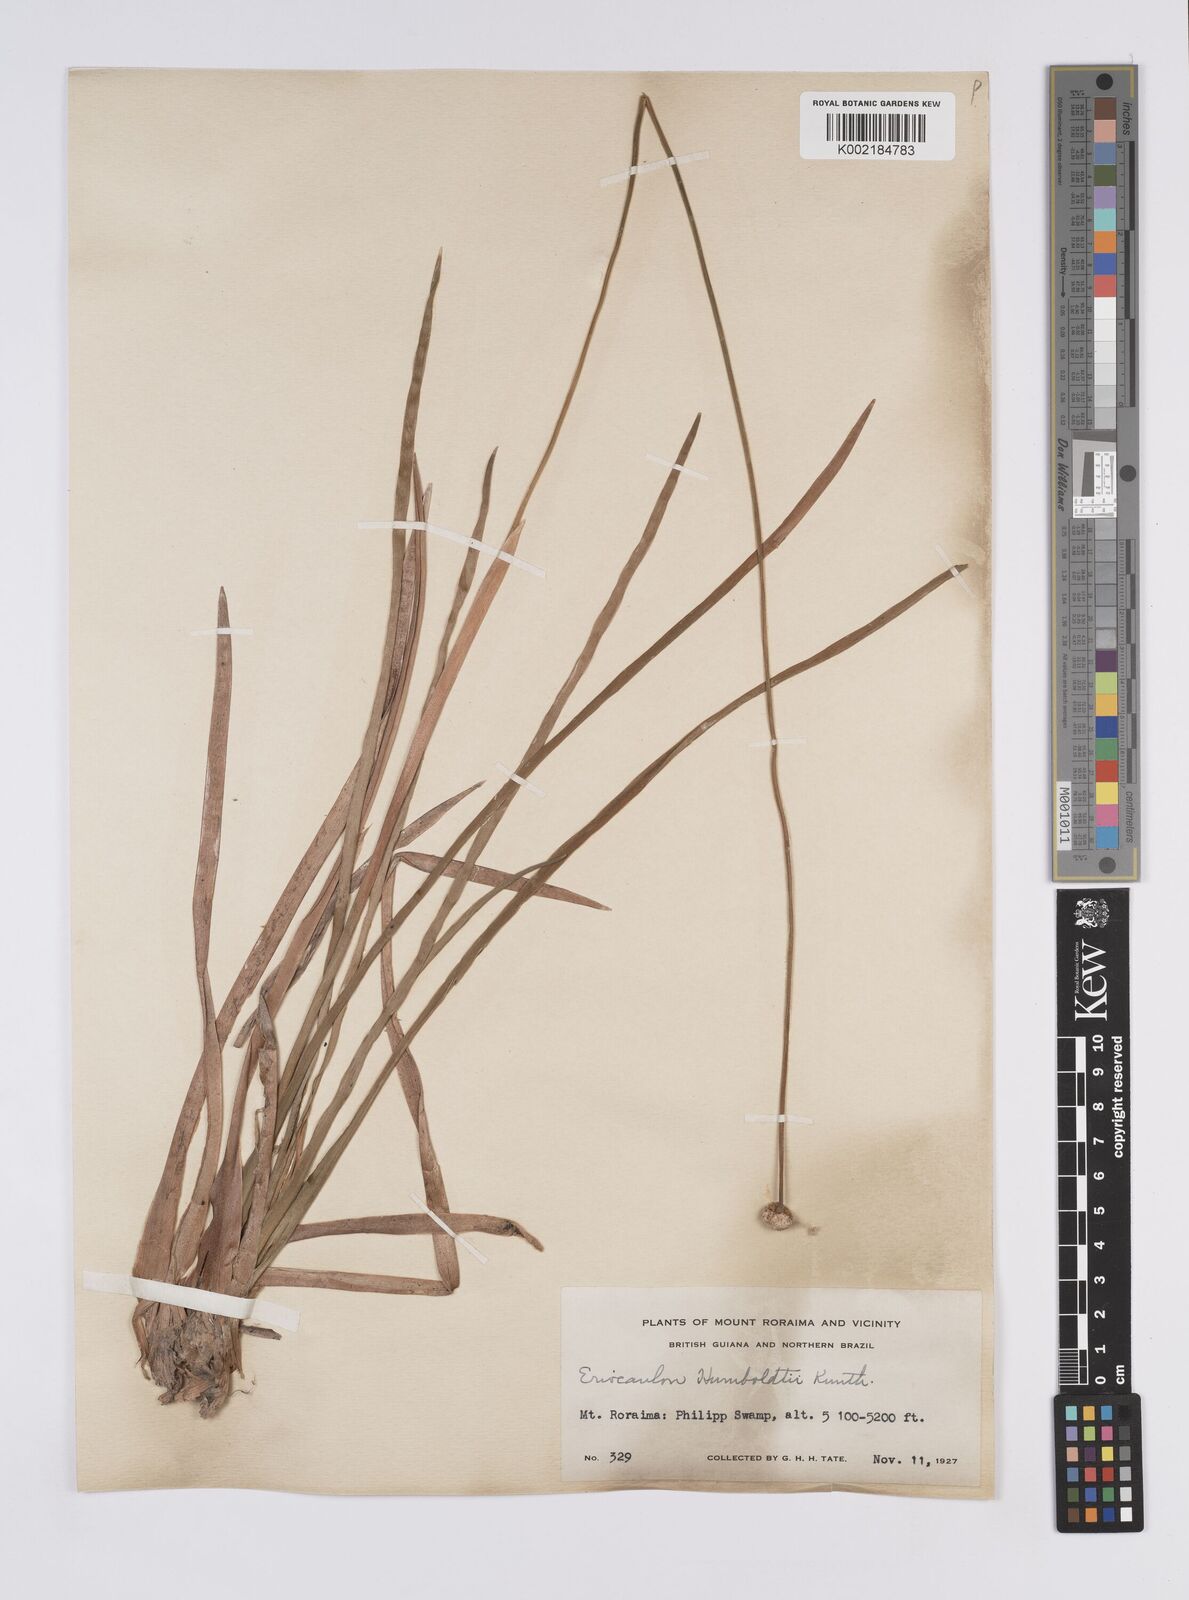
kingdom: Plantae
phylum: Tracheophyta
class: Liliopsida
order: Poales
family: Eriocaulaceae
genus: Eriocaulon
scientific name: Eriocaulon humboldtii
